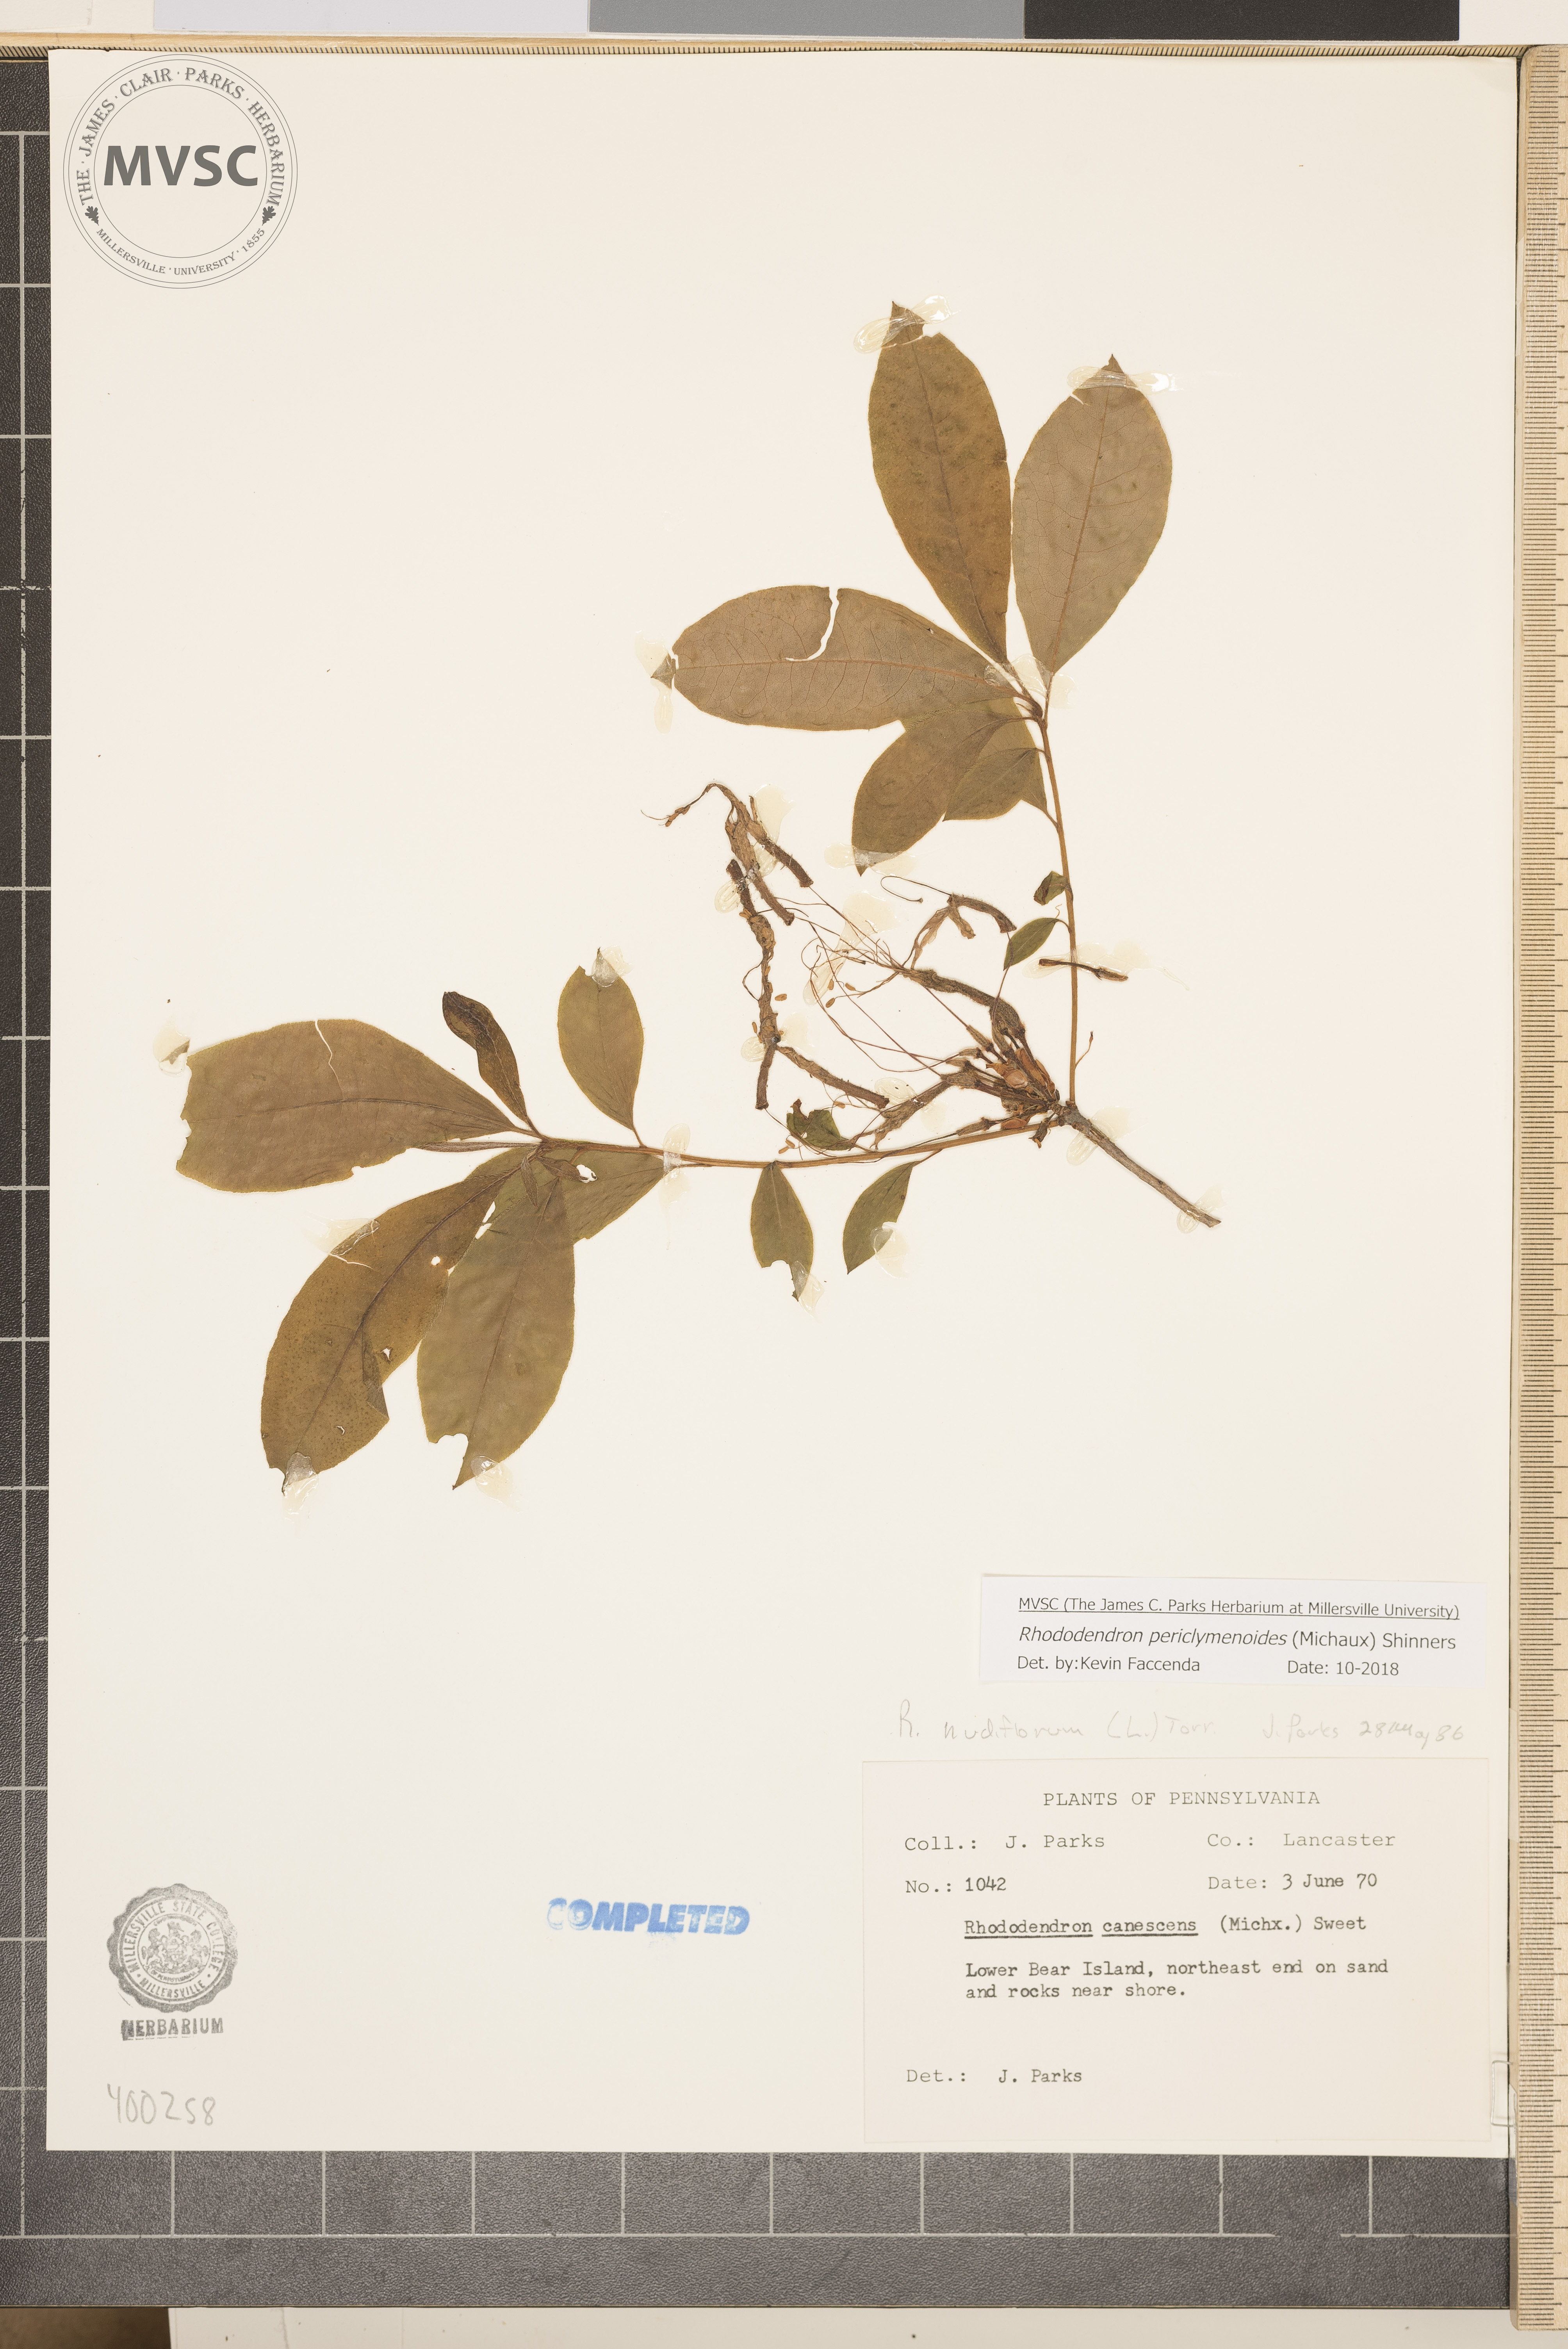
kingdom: Plantae
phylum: Tracheophyta
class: Magnoliopsida
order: Ericales
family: Ericaceae
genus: Rhododendron
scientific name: Rhododendron periclymenoides
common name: Election-pink
